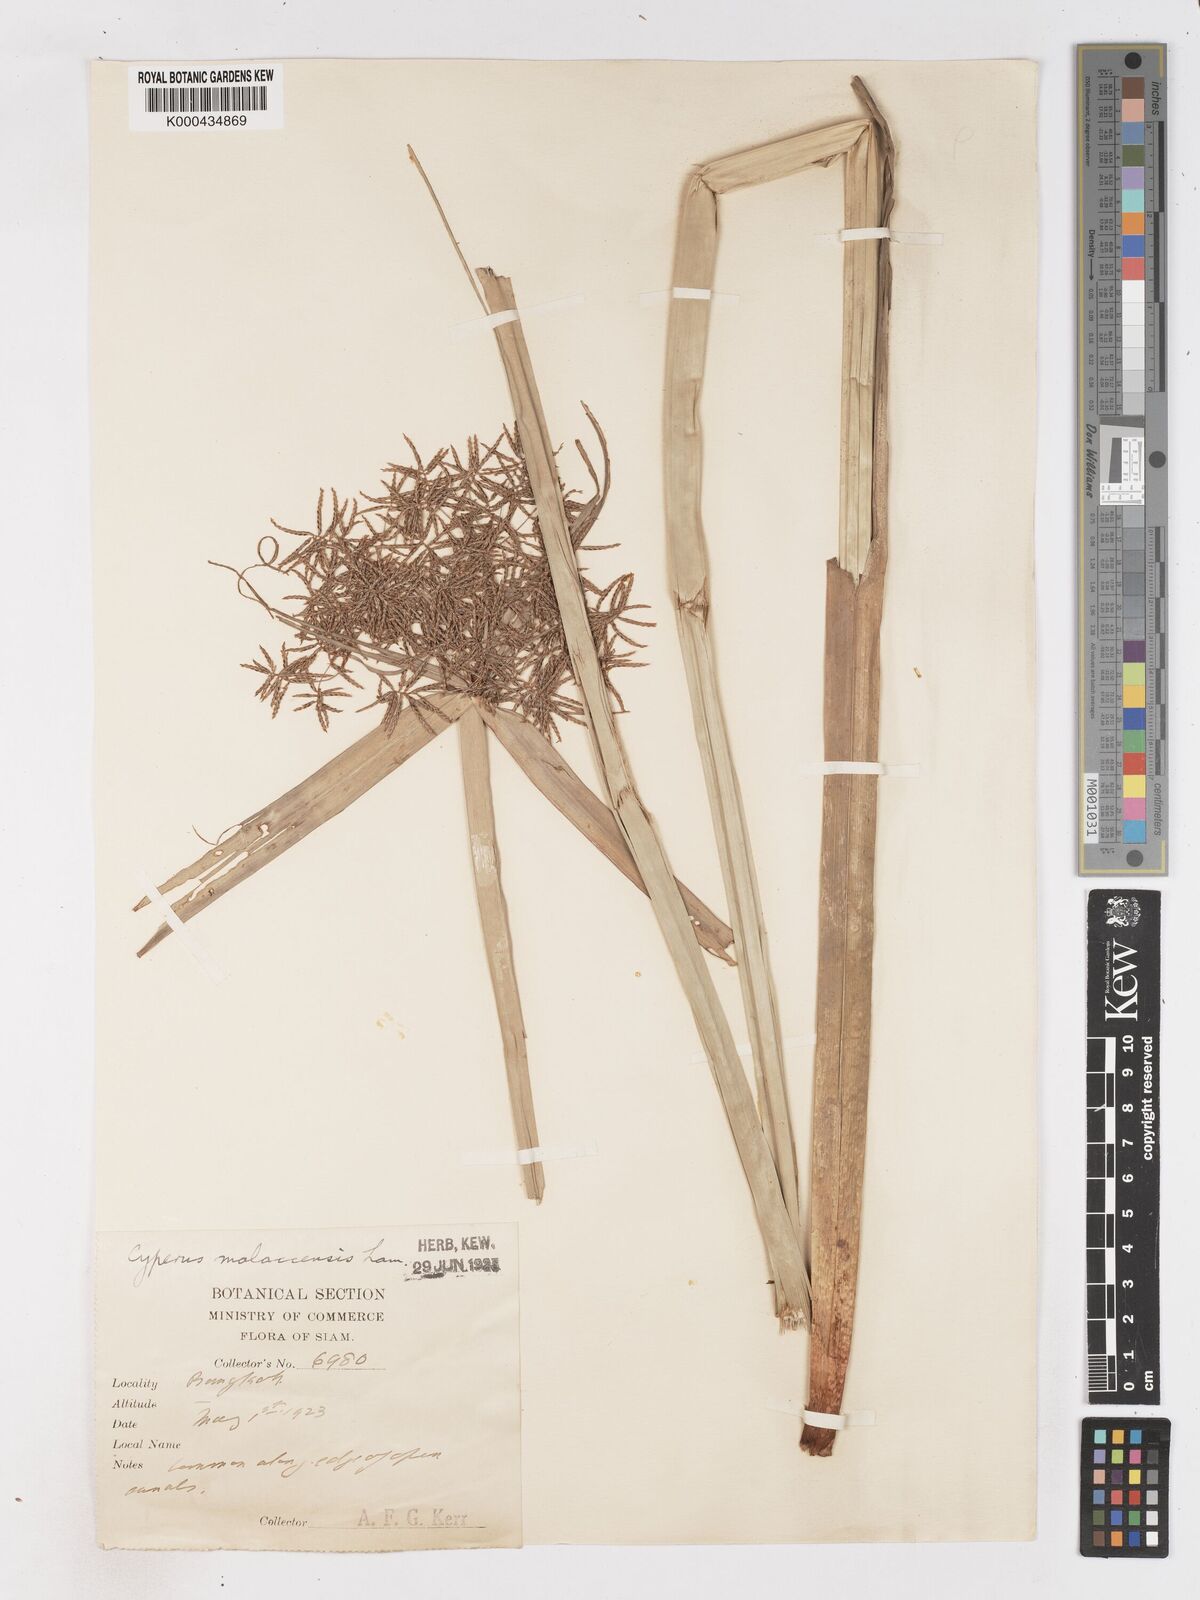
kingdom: Plantae
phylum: Tracheophyta
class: Liliopsida
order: Poales
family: Cyperaceae
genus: Cyperus
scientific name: Cyperus malaccensis
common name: Shichito matgrass
